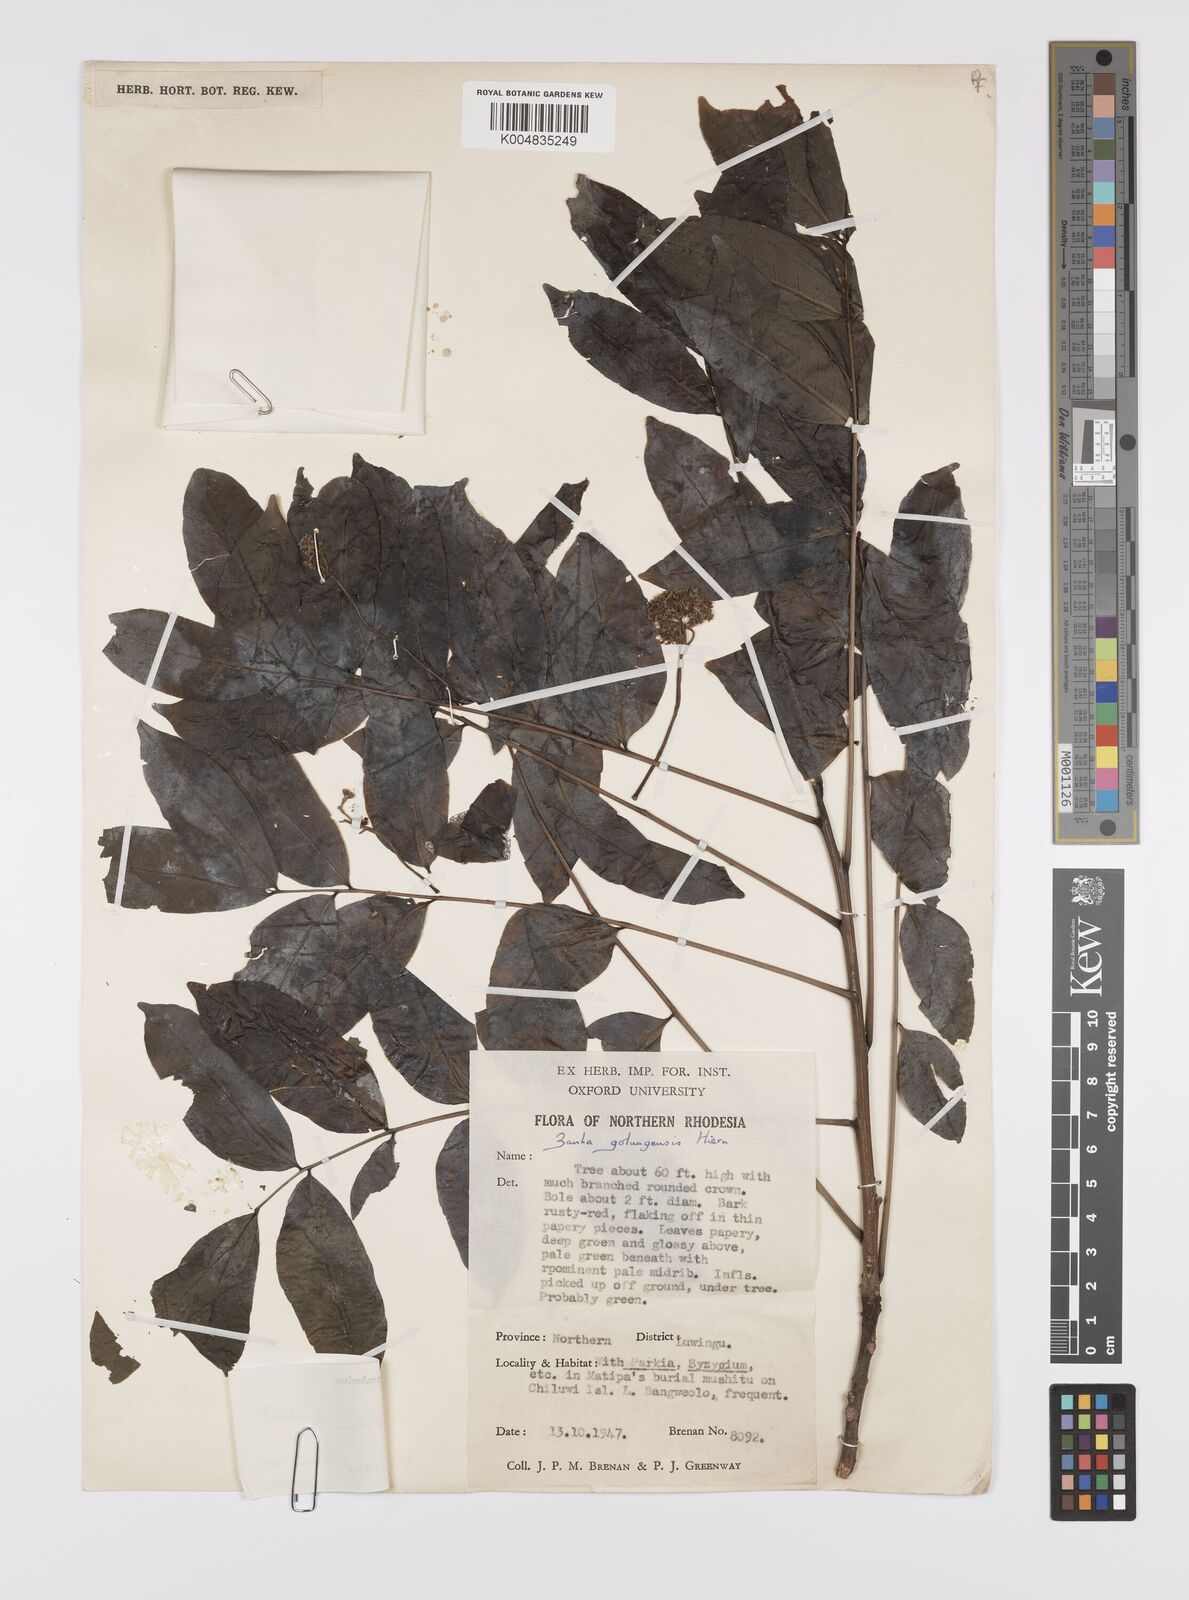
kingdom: Plantae
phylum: Tracheophyta
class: Magnoliopsida
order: Sapindales
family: Sapindaceae
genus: Zanha
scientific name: Zanha golungensis
